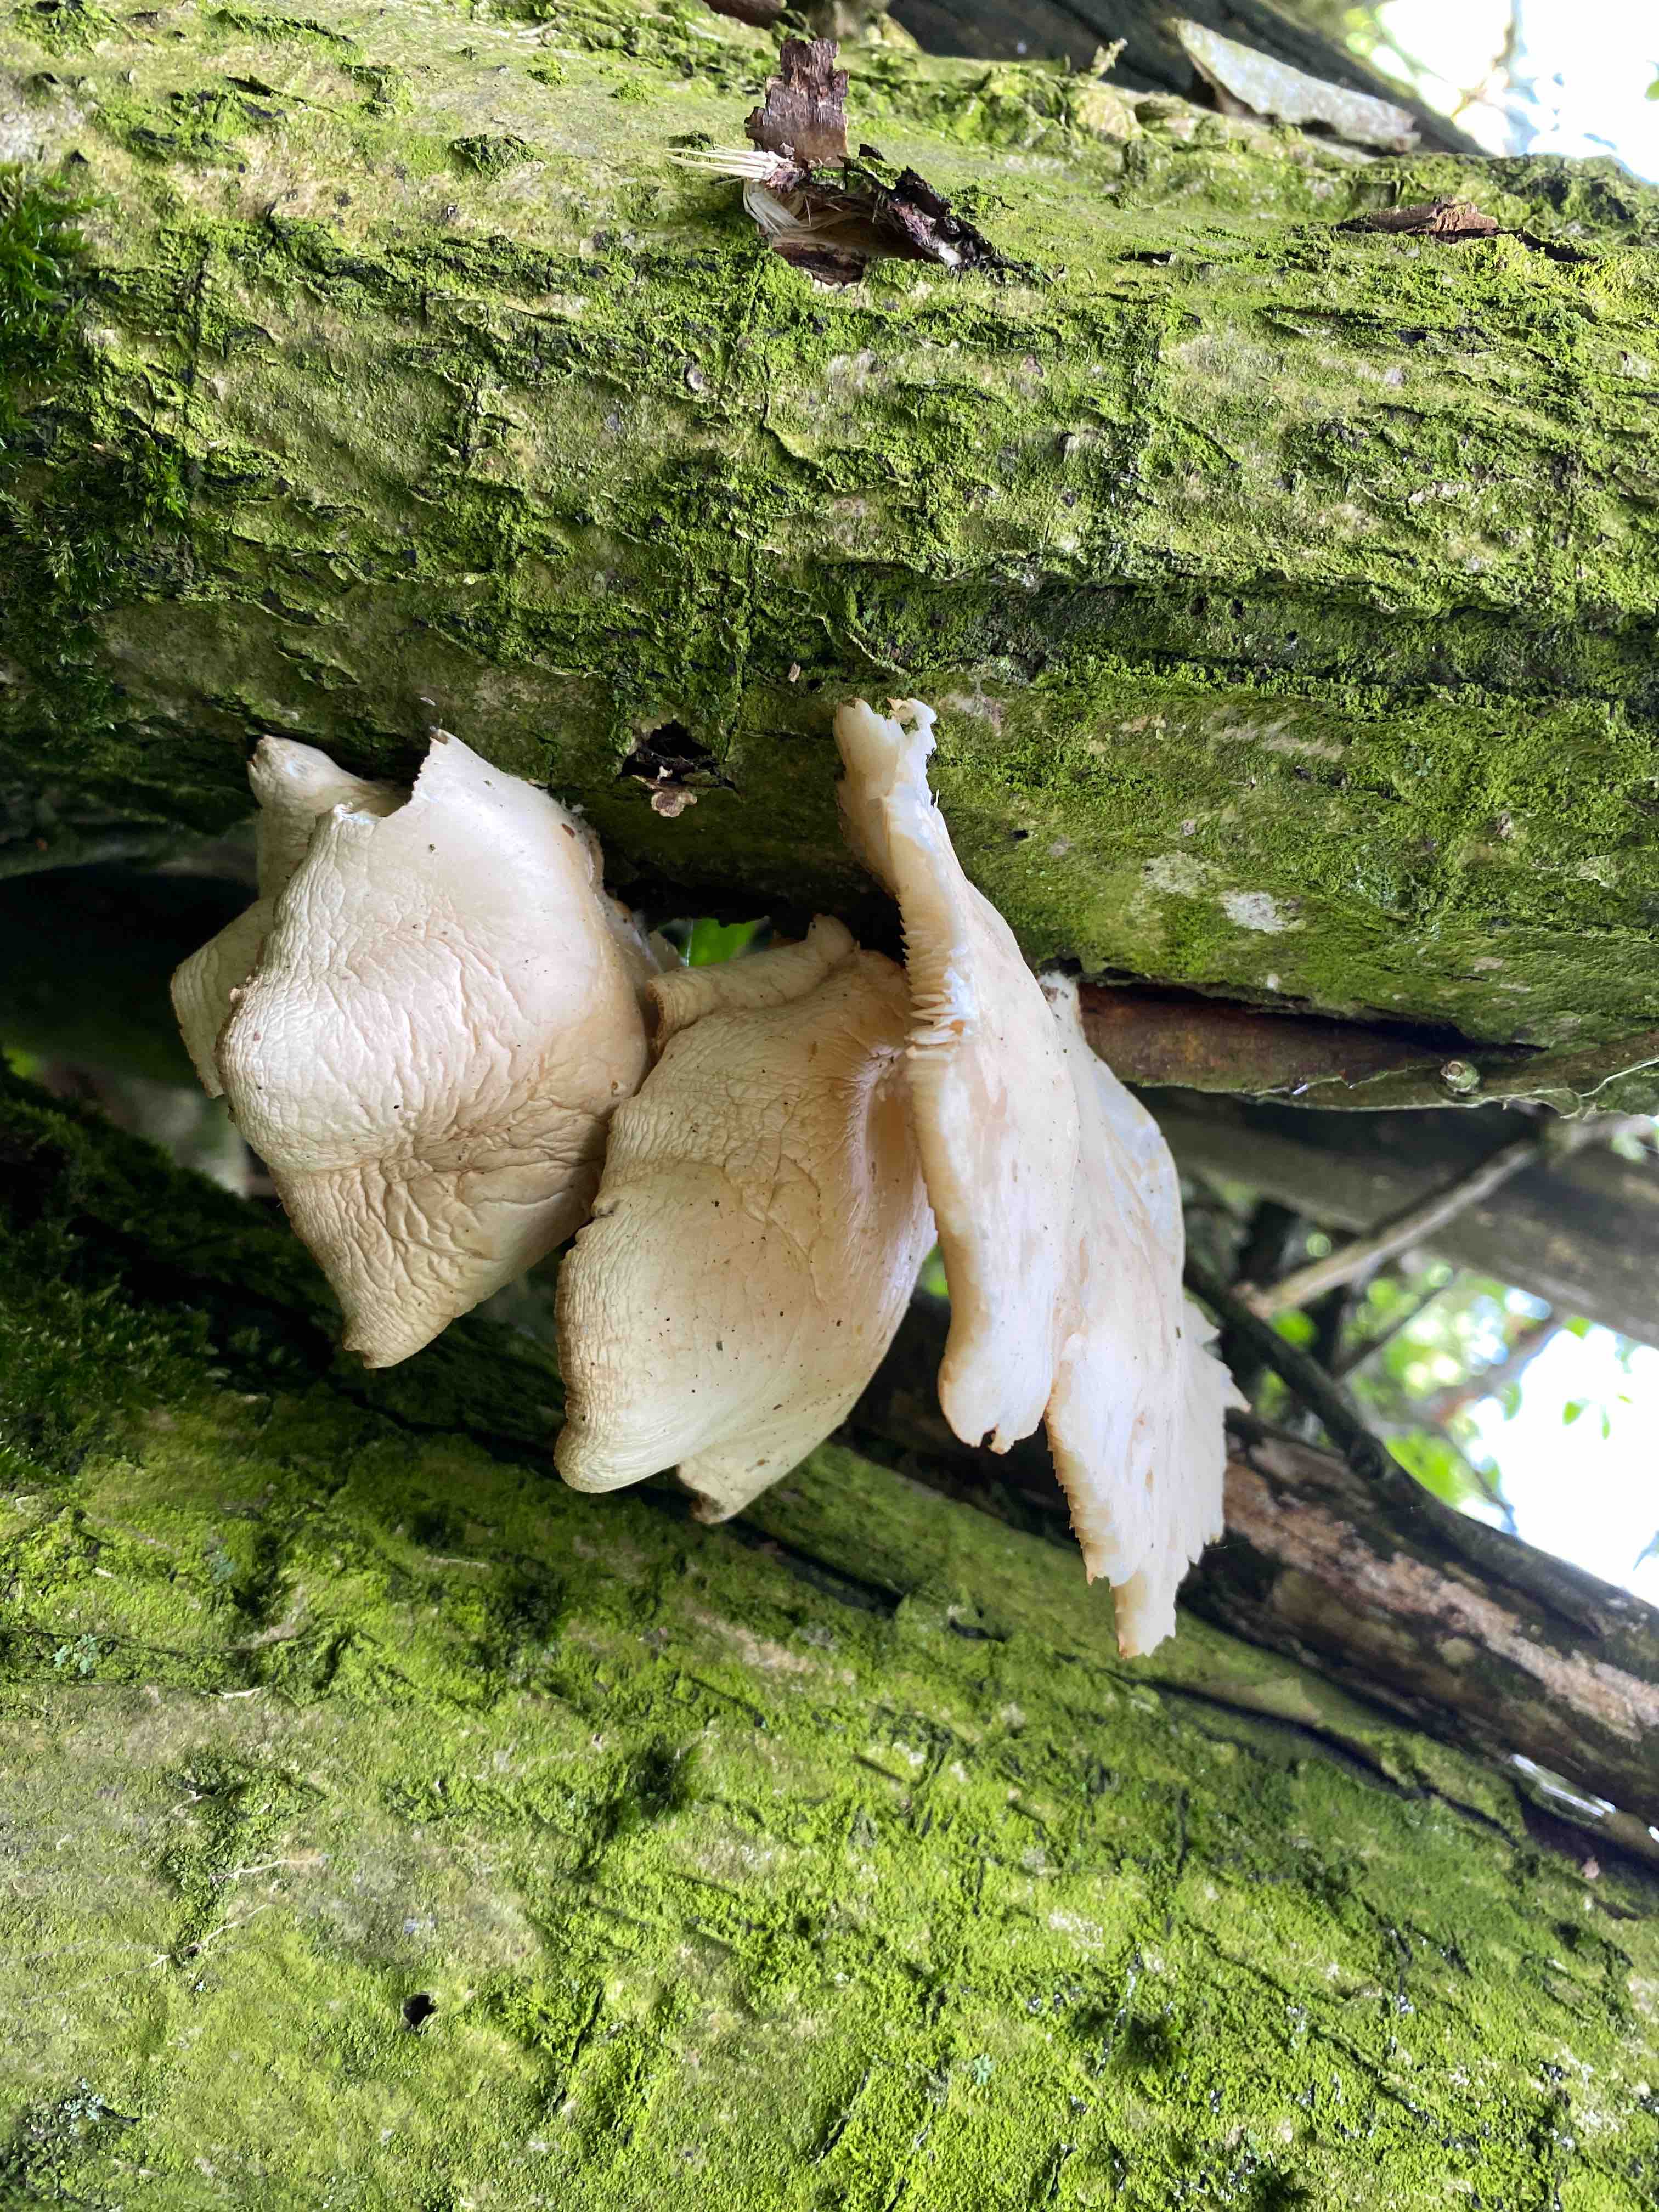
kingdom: Fungi
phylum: Basidiomycota
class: Agaricomycetes
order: Agaricales
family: Pleurotaceae
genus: Pleurotus
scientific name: Pleurotus pulmonarius
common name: sommer-østershat
